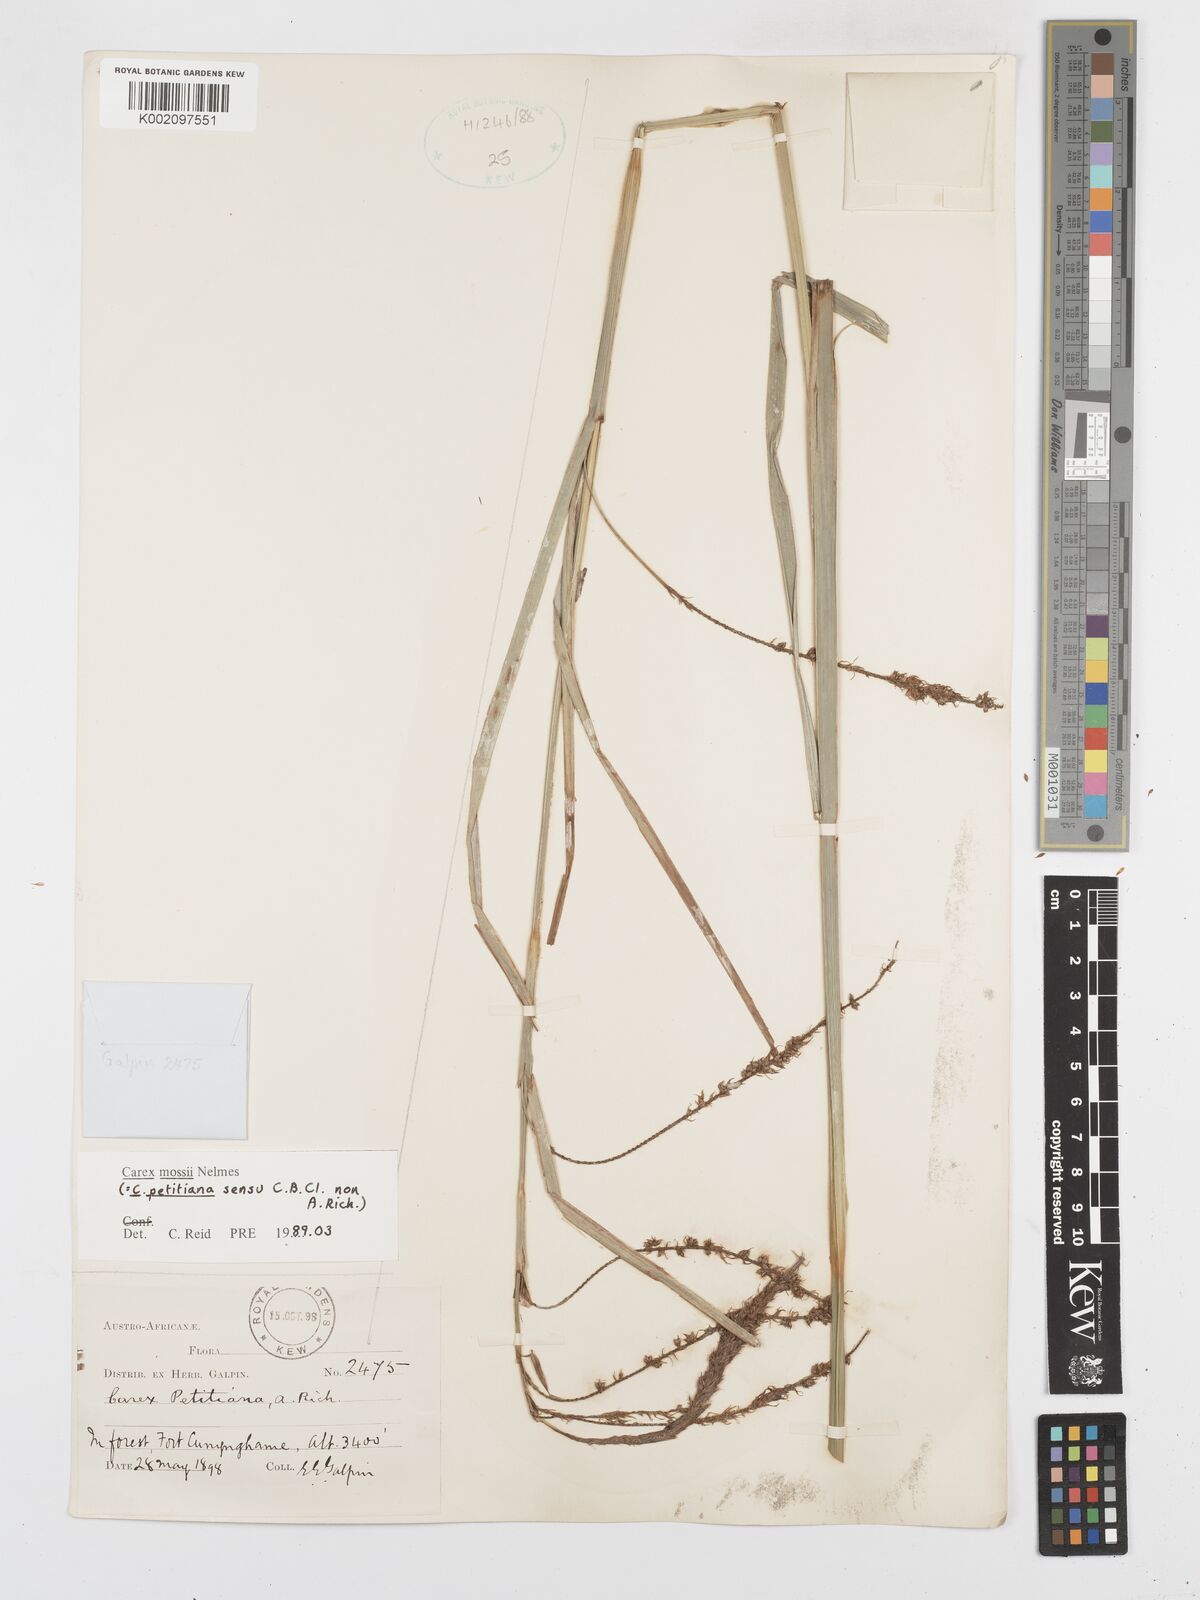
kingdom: Plantae
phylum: Tracheophyta
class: Liliopsida
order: Poales
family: Cyperaceae
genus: Carex
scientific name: Carex petitiana
